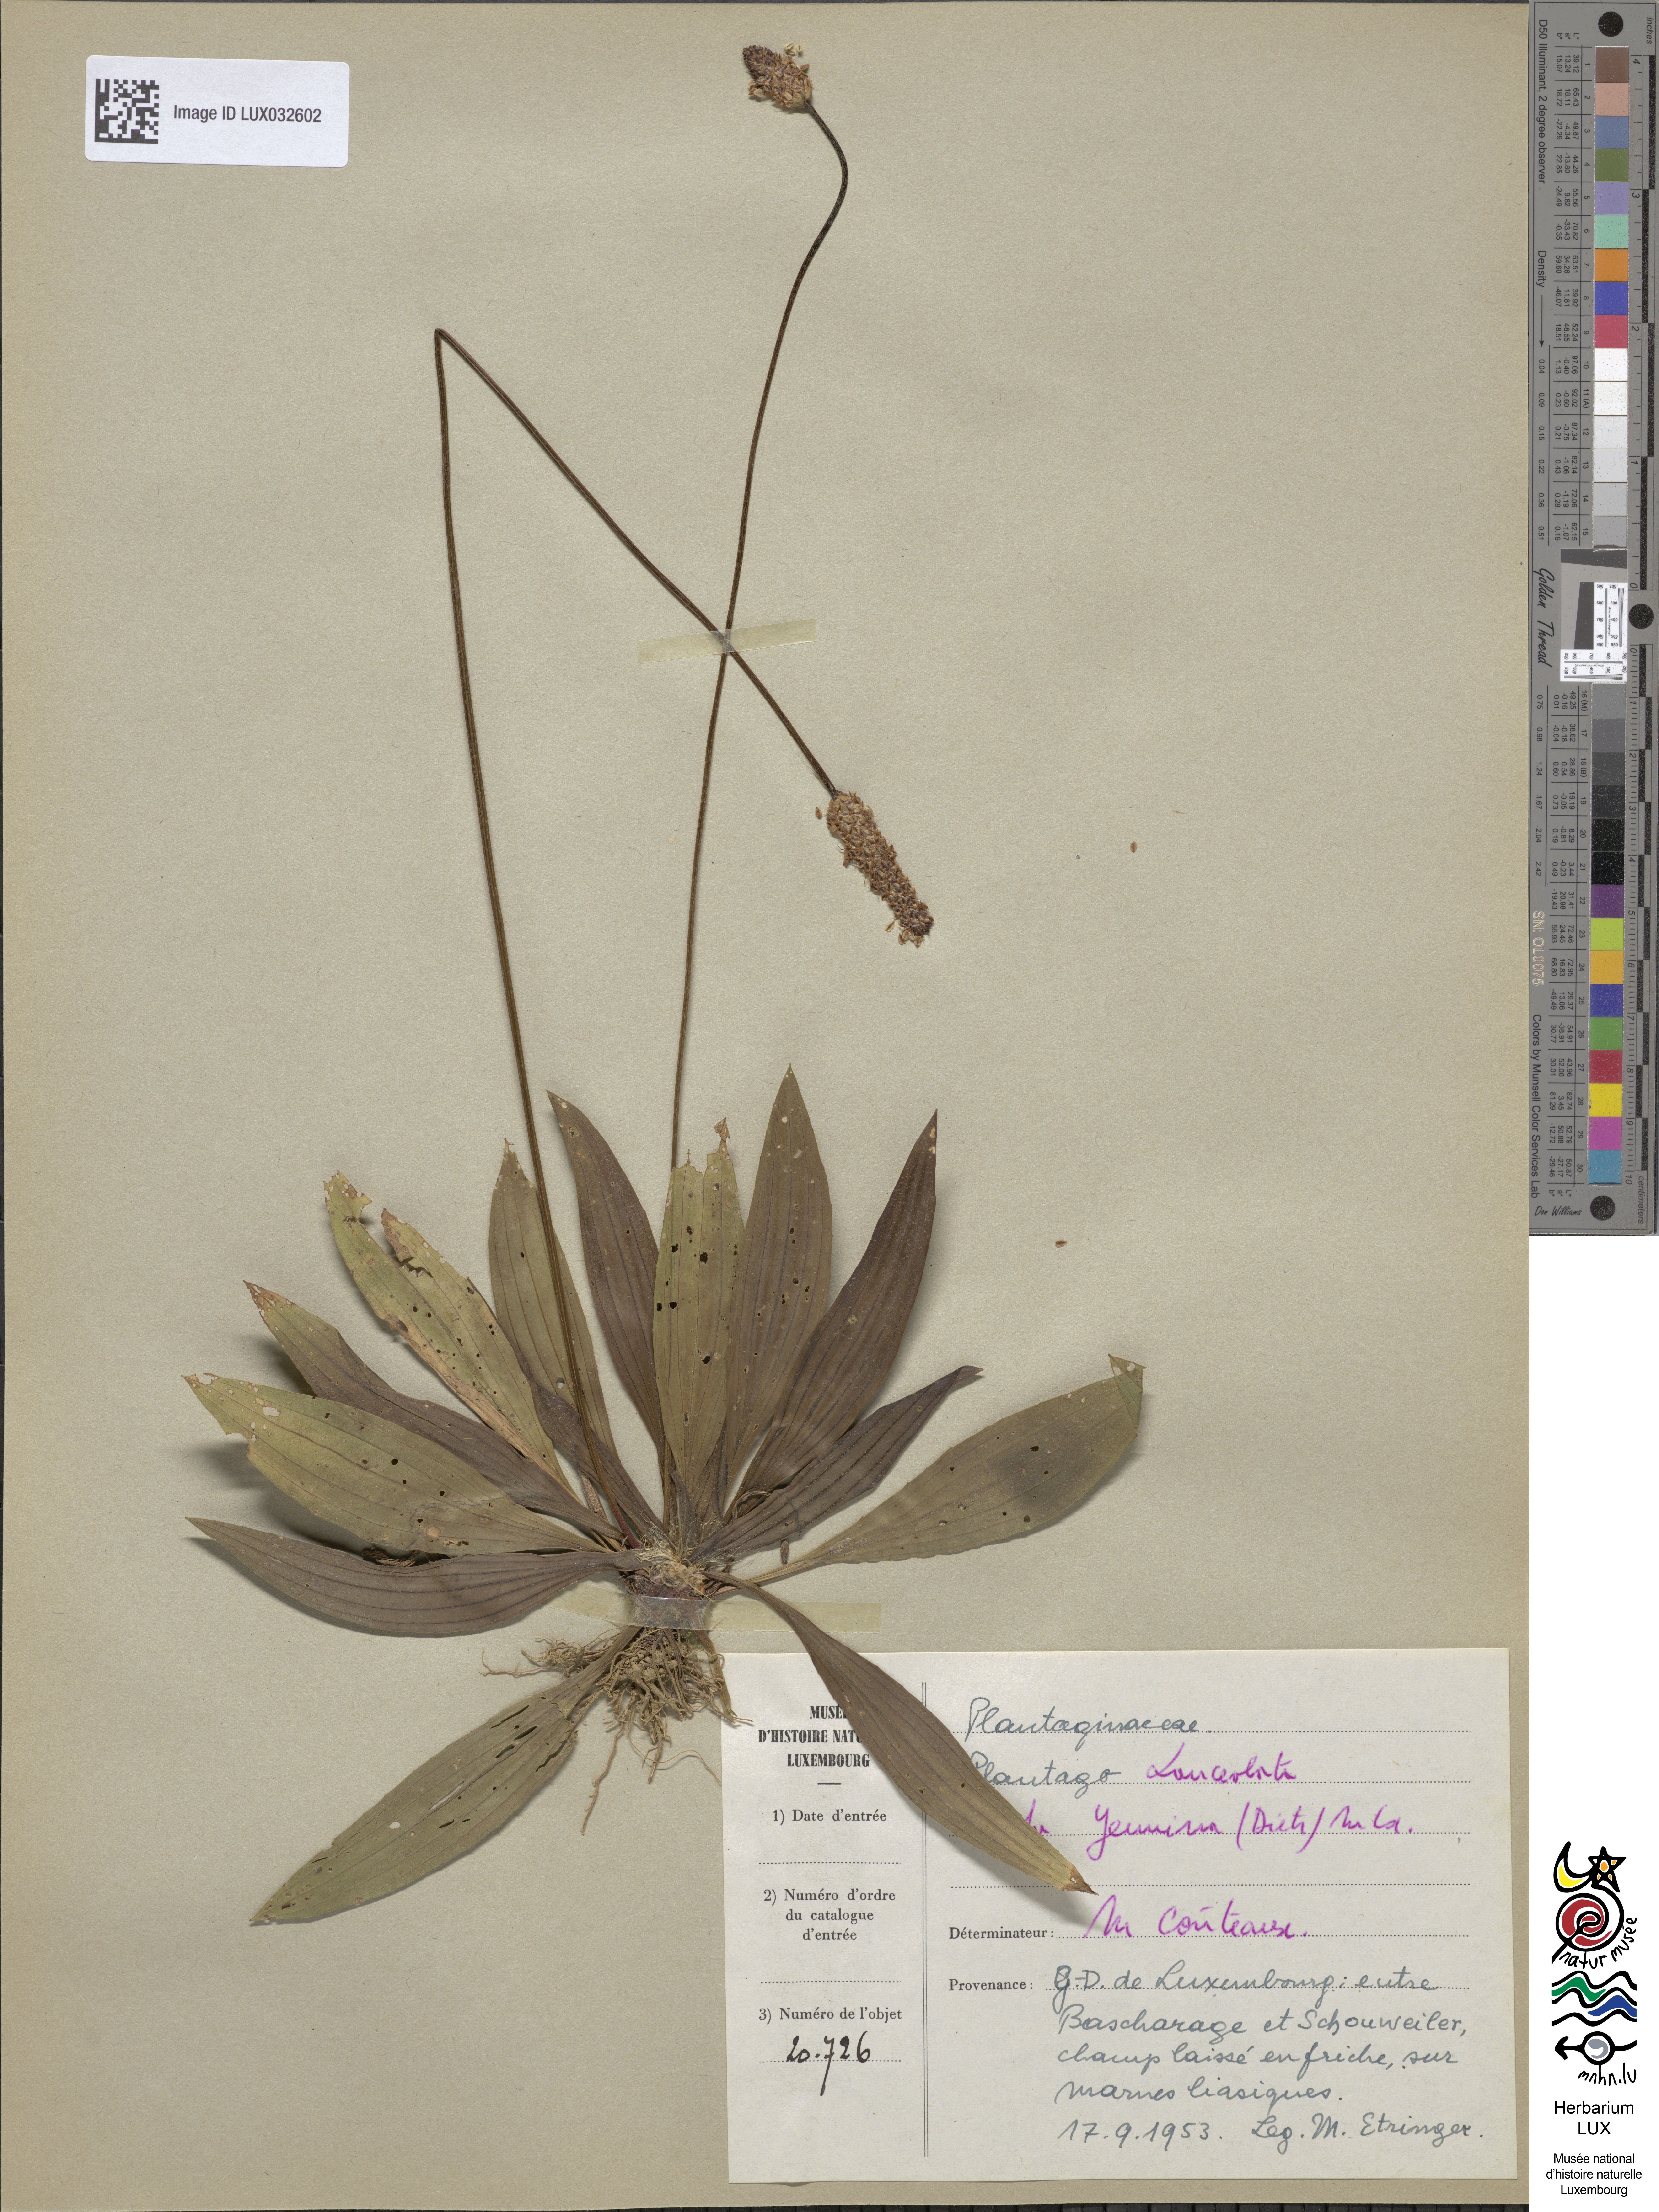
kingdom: Plantae
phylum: Tracheophyta
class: Magnoliopsida
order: Lamiales
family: Plantaginaceae
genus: Plantago
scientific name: Plantago lanceolata
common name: Ribwort plantain
